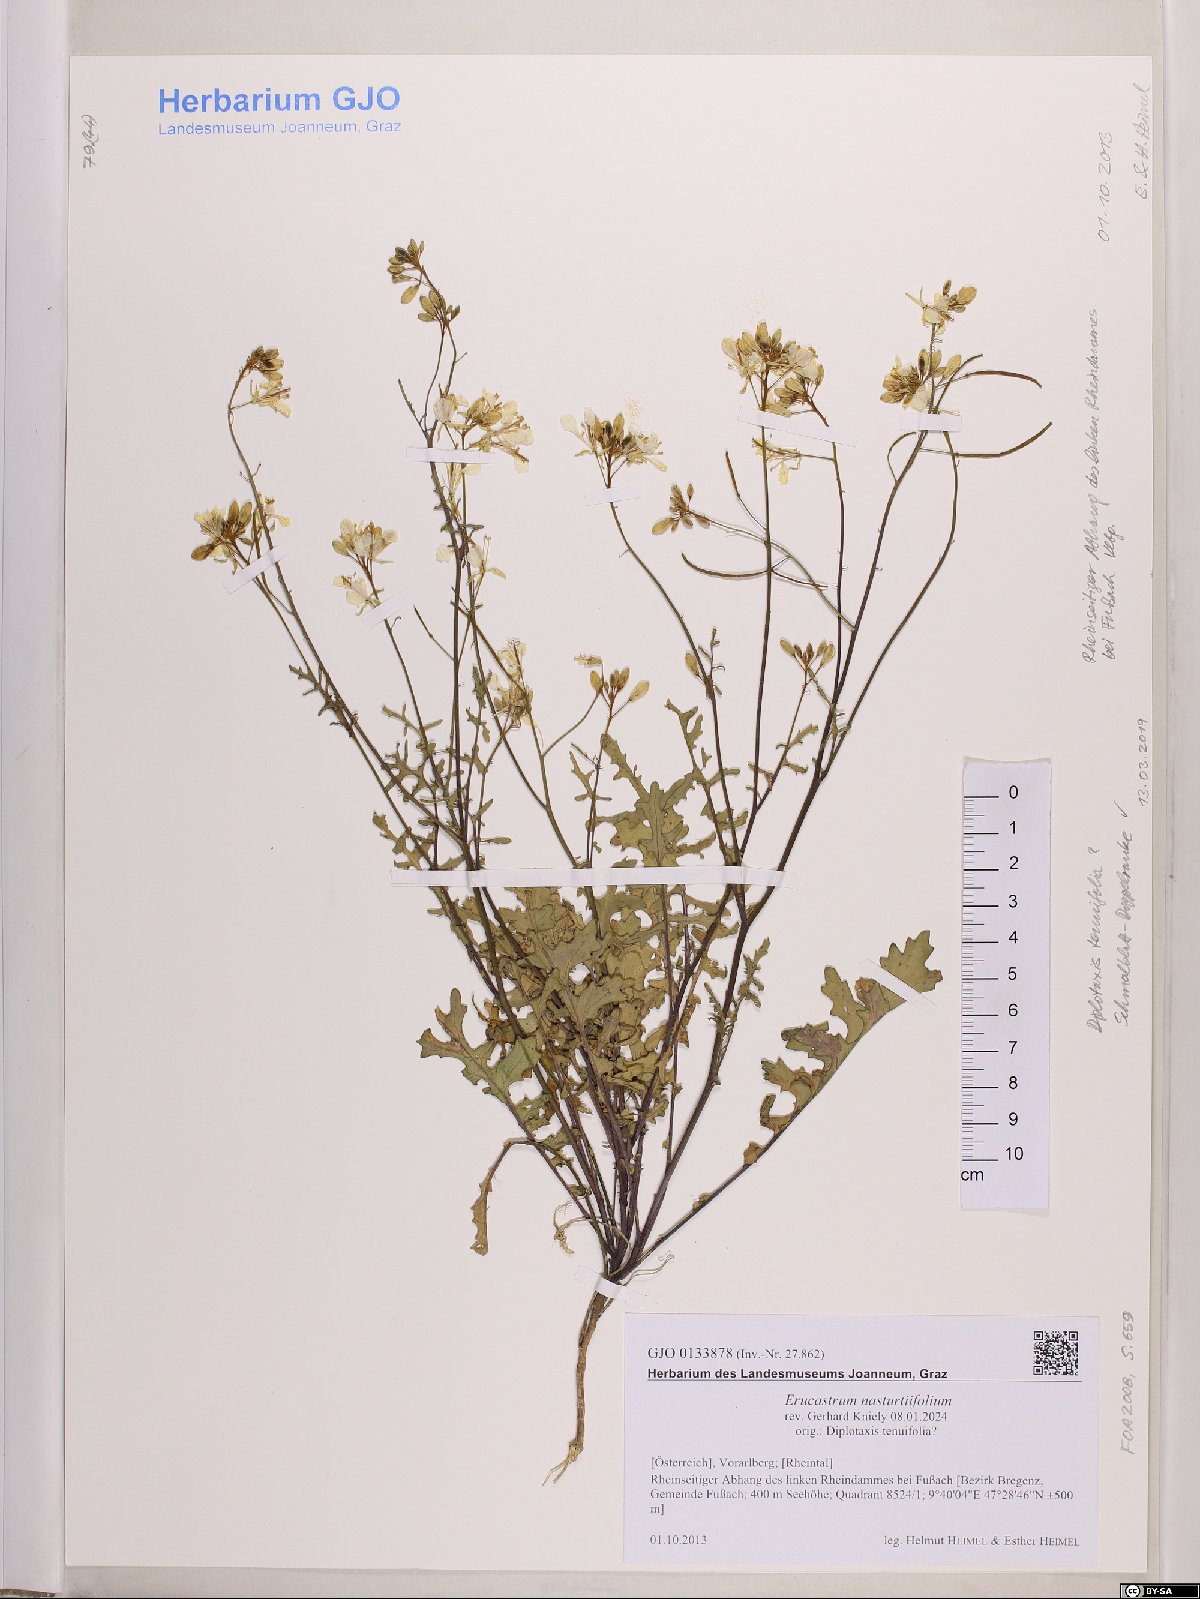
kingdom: Plantae
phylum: Tracheophyta
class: Magnoliopsida
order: Brassicales
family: Brassicaceae
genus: Erucastrum
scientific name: Erucastrum nasturtiifolium
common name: Watercress-leaf rocket
